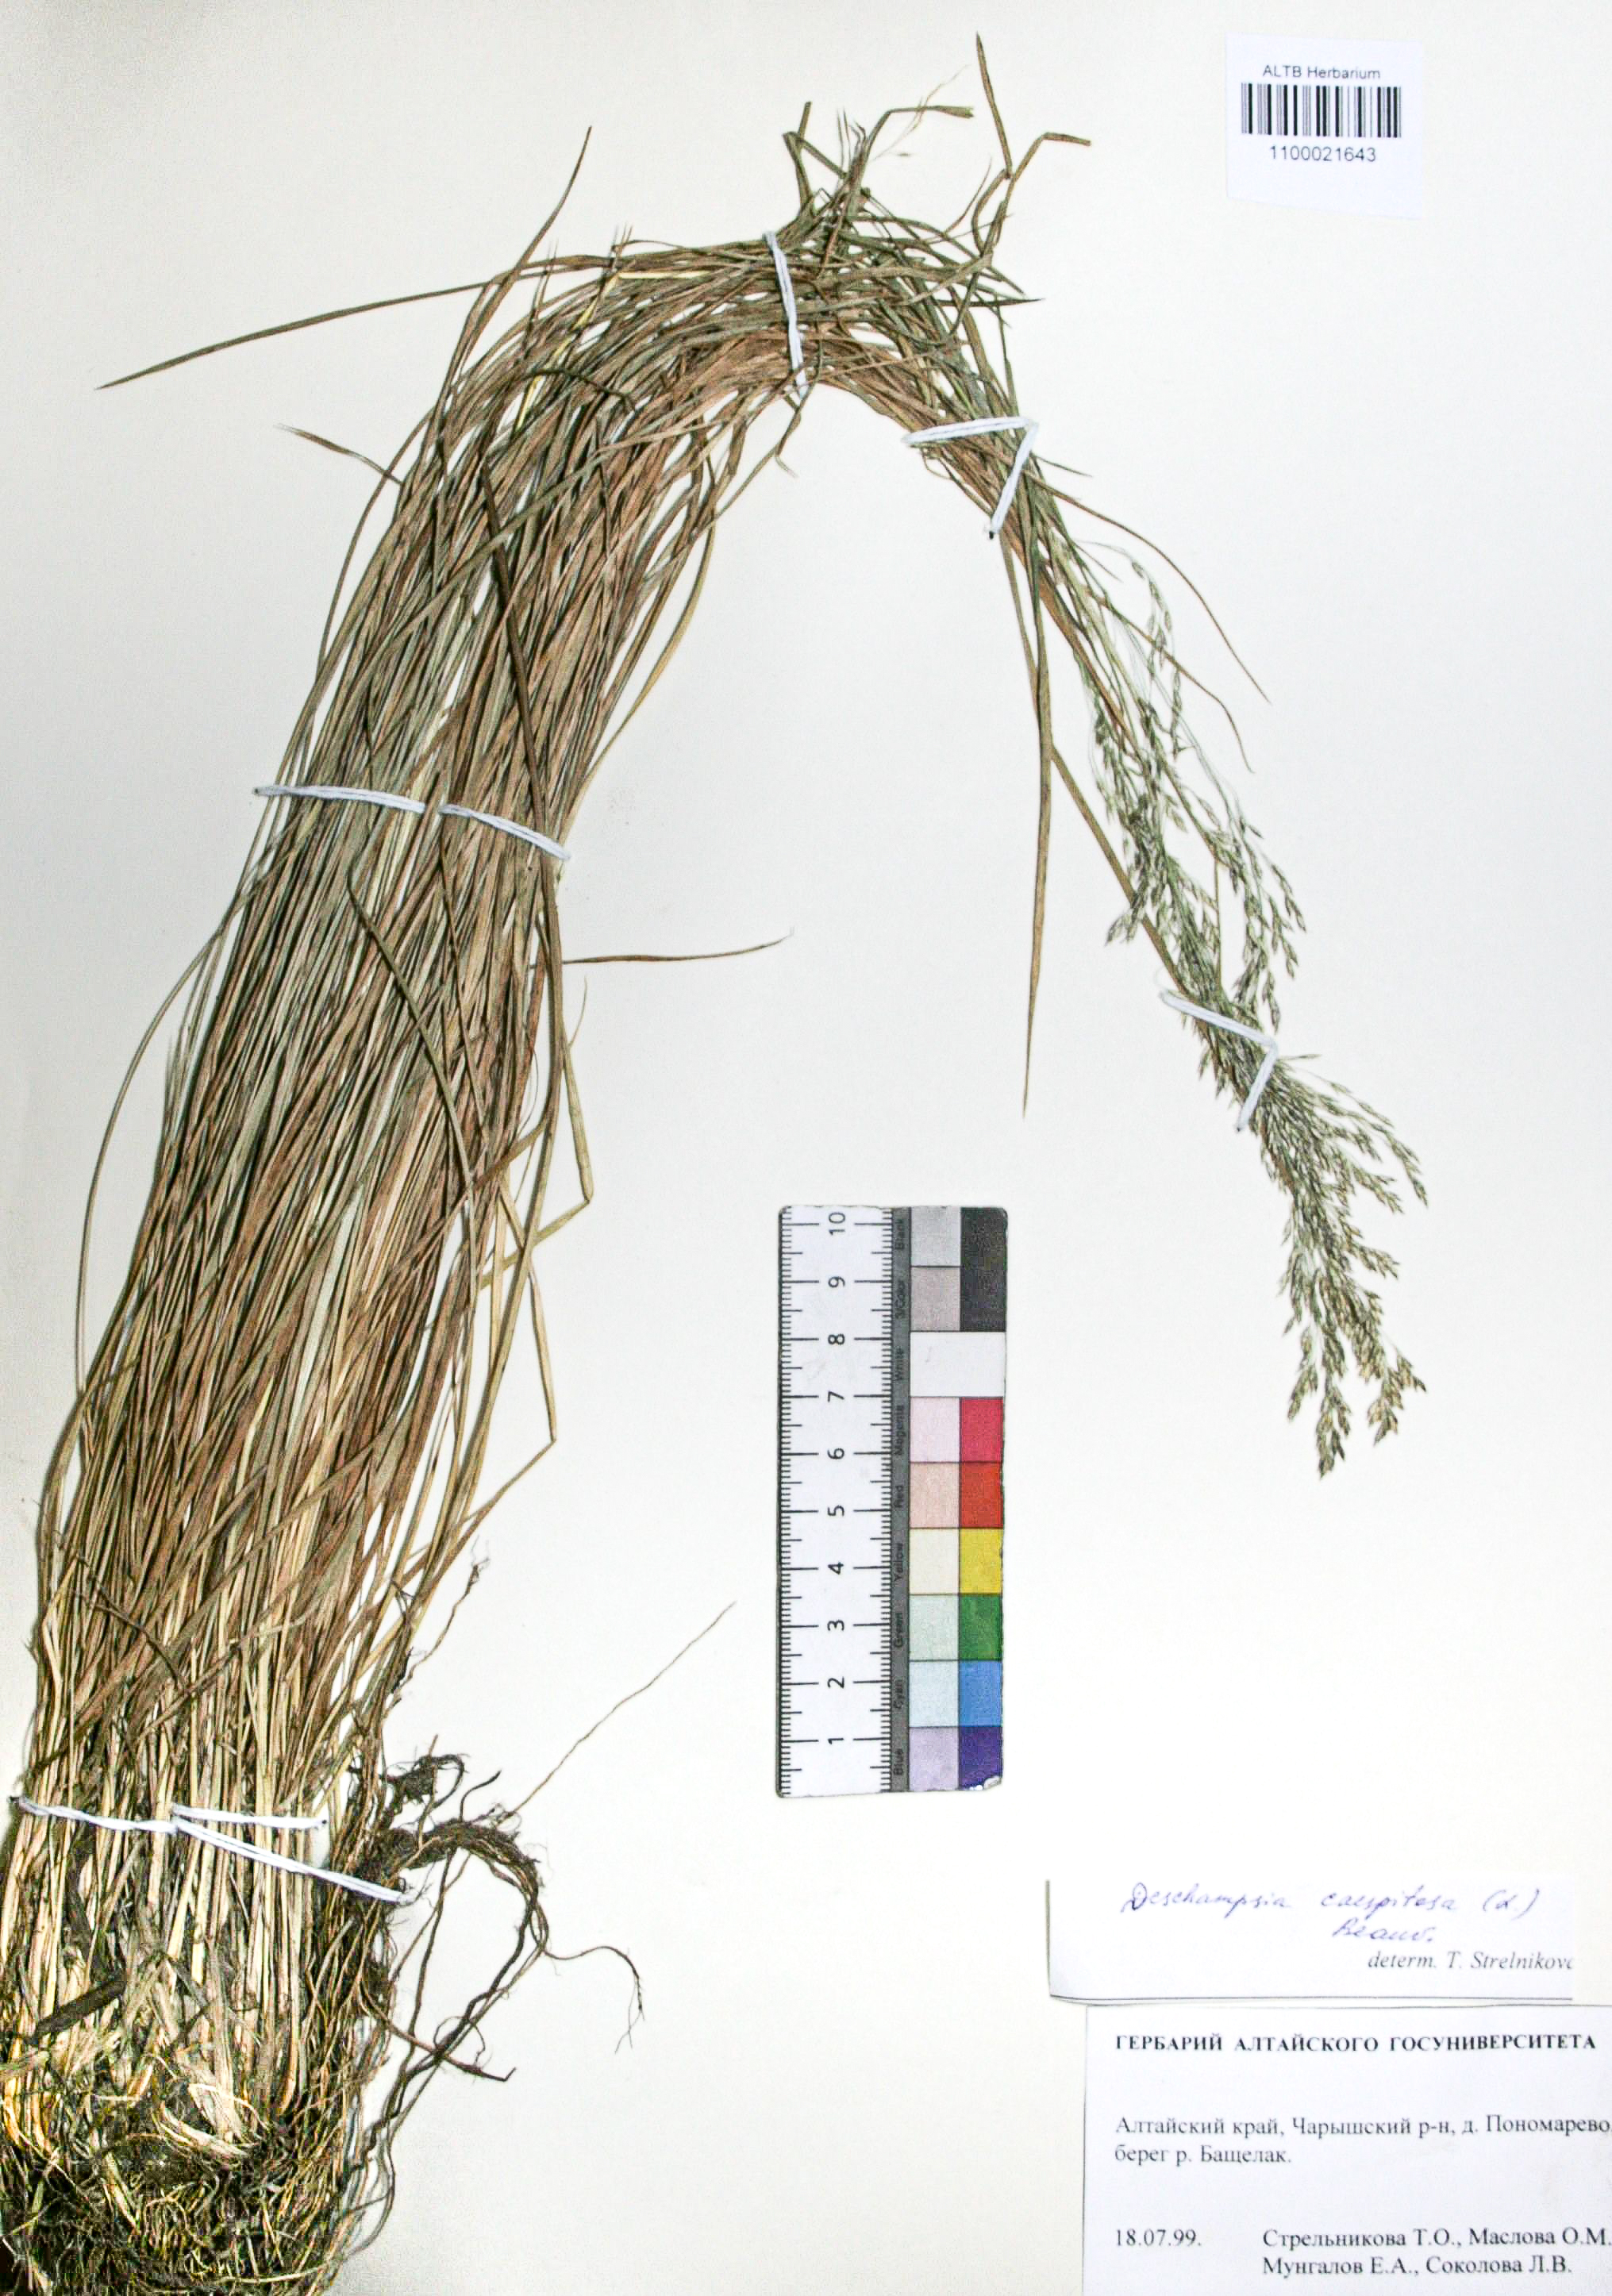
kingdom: Plantae
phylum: Tracheophyta
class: Liliopsida
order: Poales
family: Poaceae
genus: Deschampsia
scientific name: Deschampsia cespitosa
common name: Tufted hair-grass
